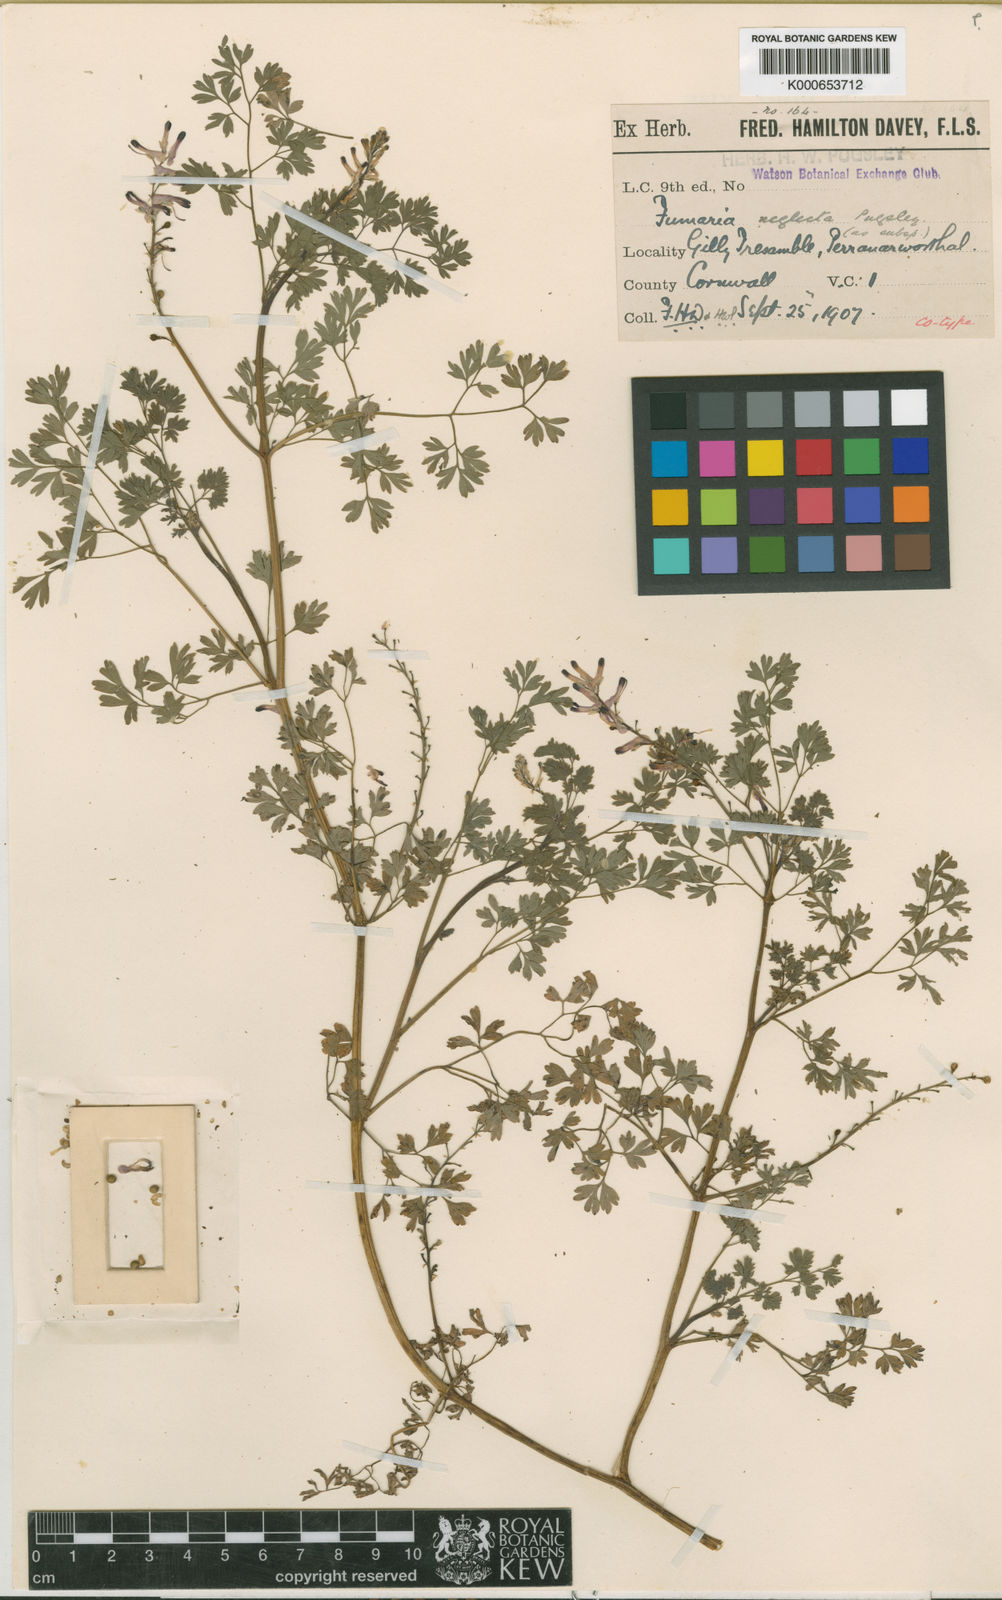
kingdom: Plantae
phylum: Tracheophyta
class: Magnoliopsida
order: Ranunculales
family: Papaveraceae
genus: Fumaria
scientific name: Fumaria muralis
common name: Common ramping-fumitory
